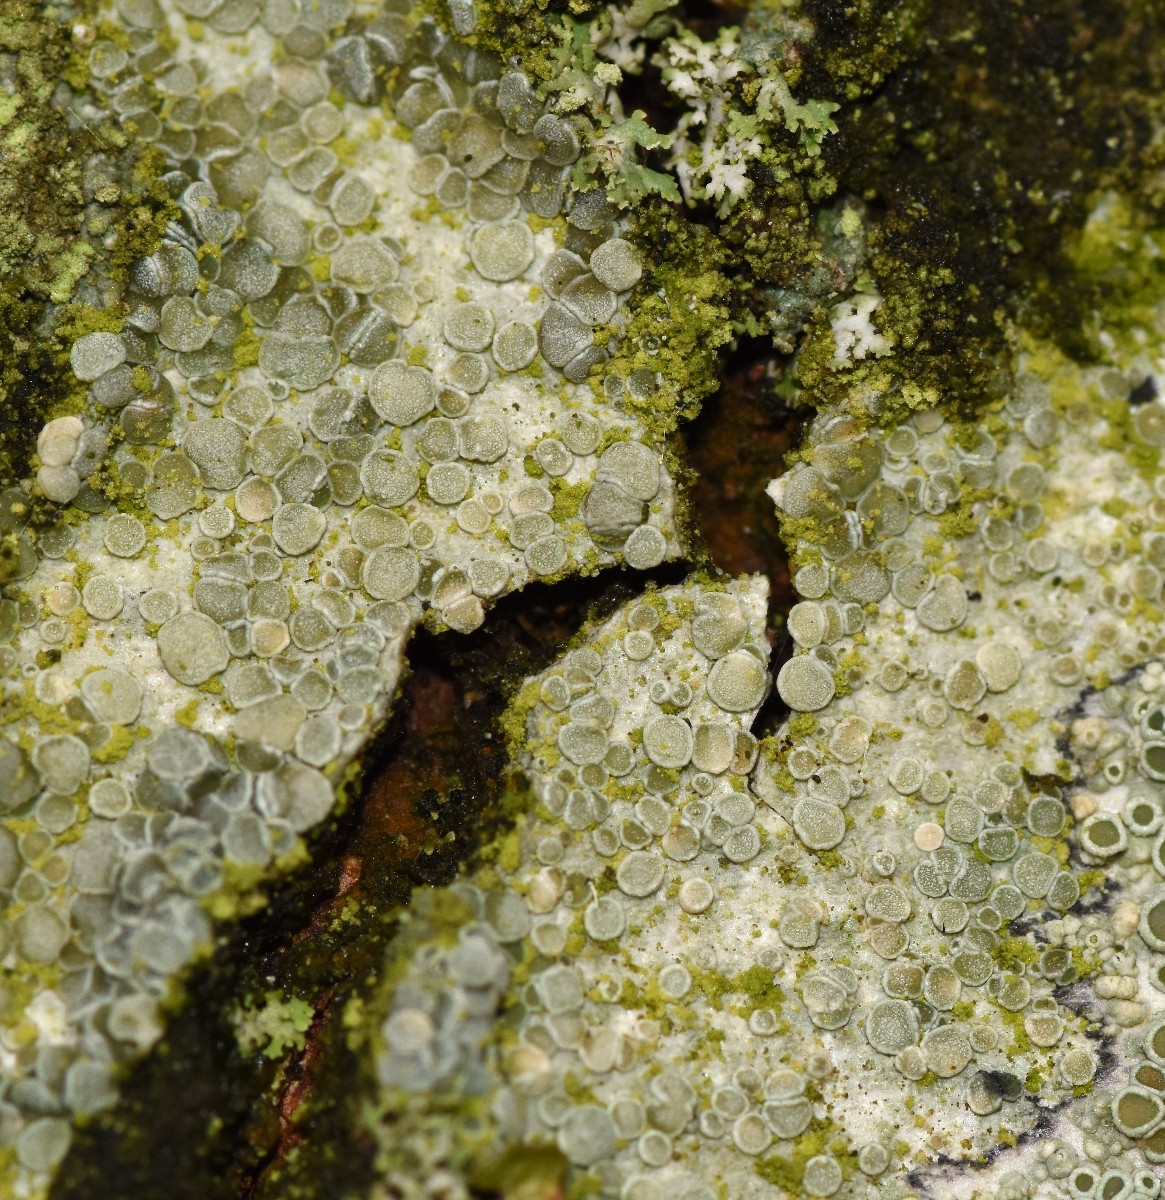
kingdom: Fungi
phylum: Ascomycota
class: Lecanoromycetes
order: Lecanorales
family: Lecanoraceae
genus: Glaucomaria
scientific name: Glaucomaria carpinea
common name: hviddugget kantskivelav
